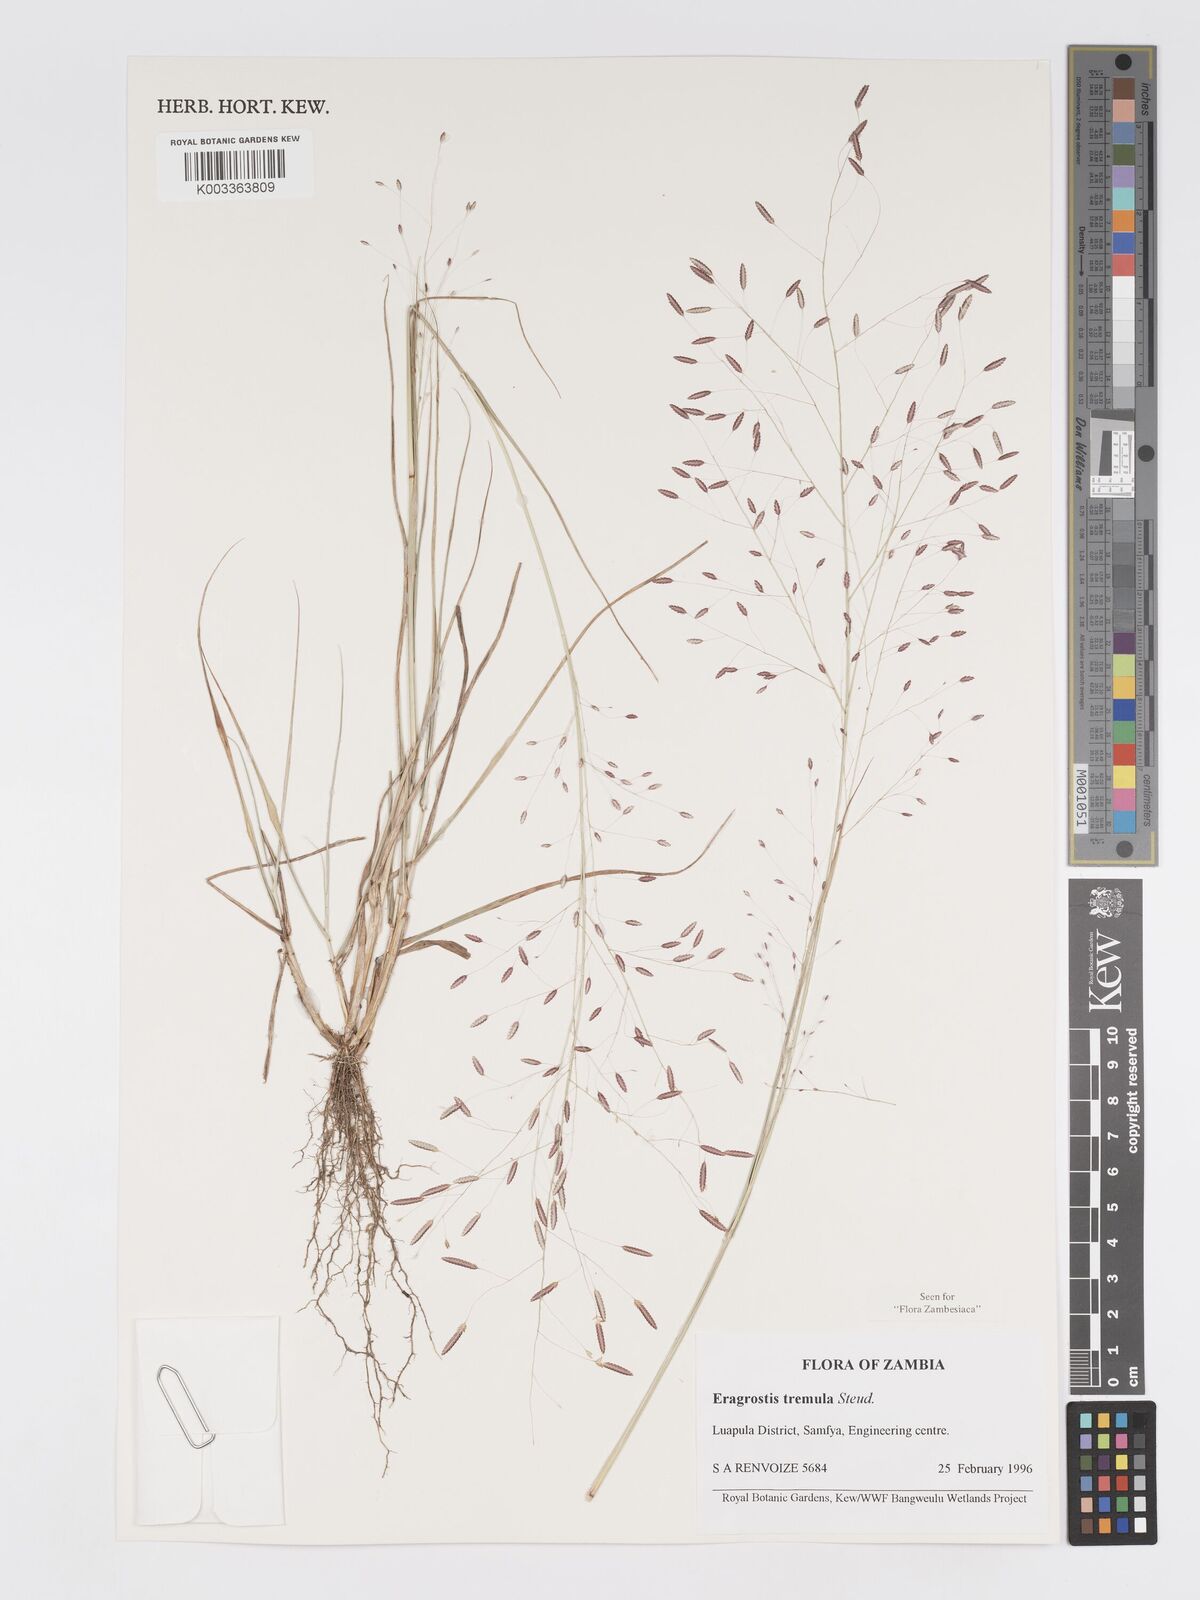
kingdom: Plantae
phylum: Tracheophyta
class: Liliopsida
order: Poales
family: Poaceae
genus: Eragrostis
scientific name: Eragrostis tremula
